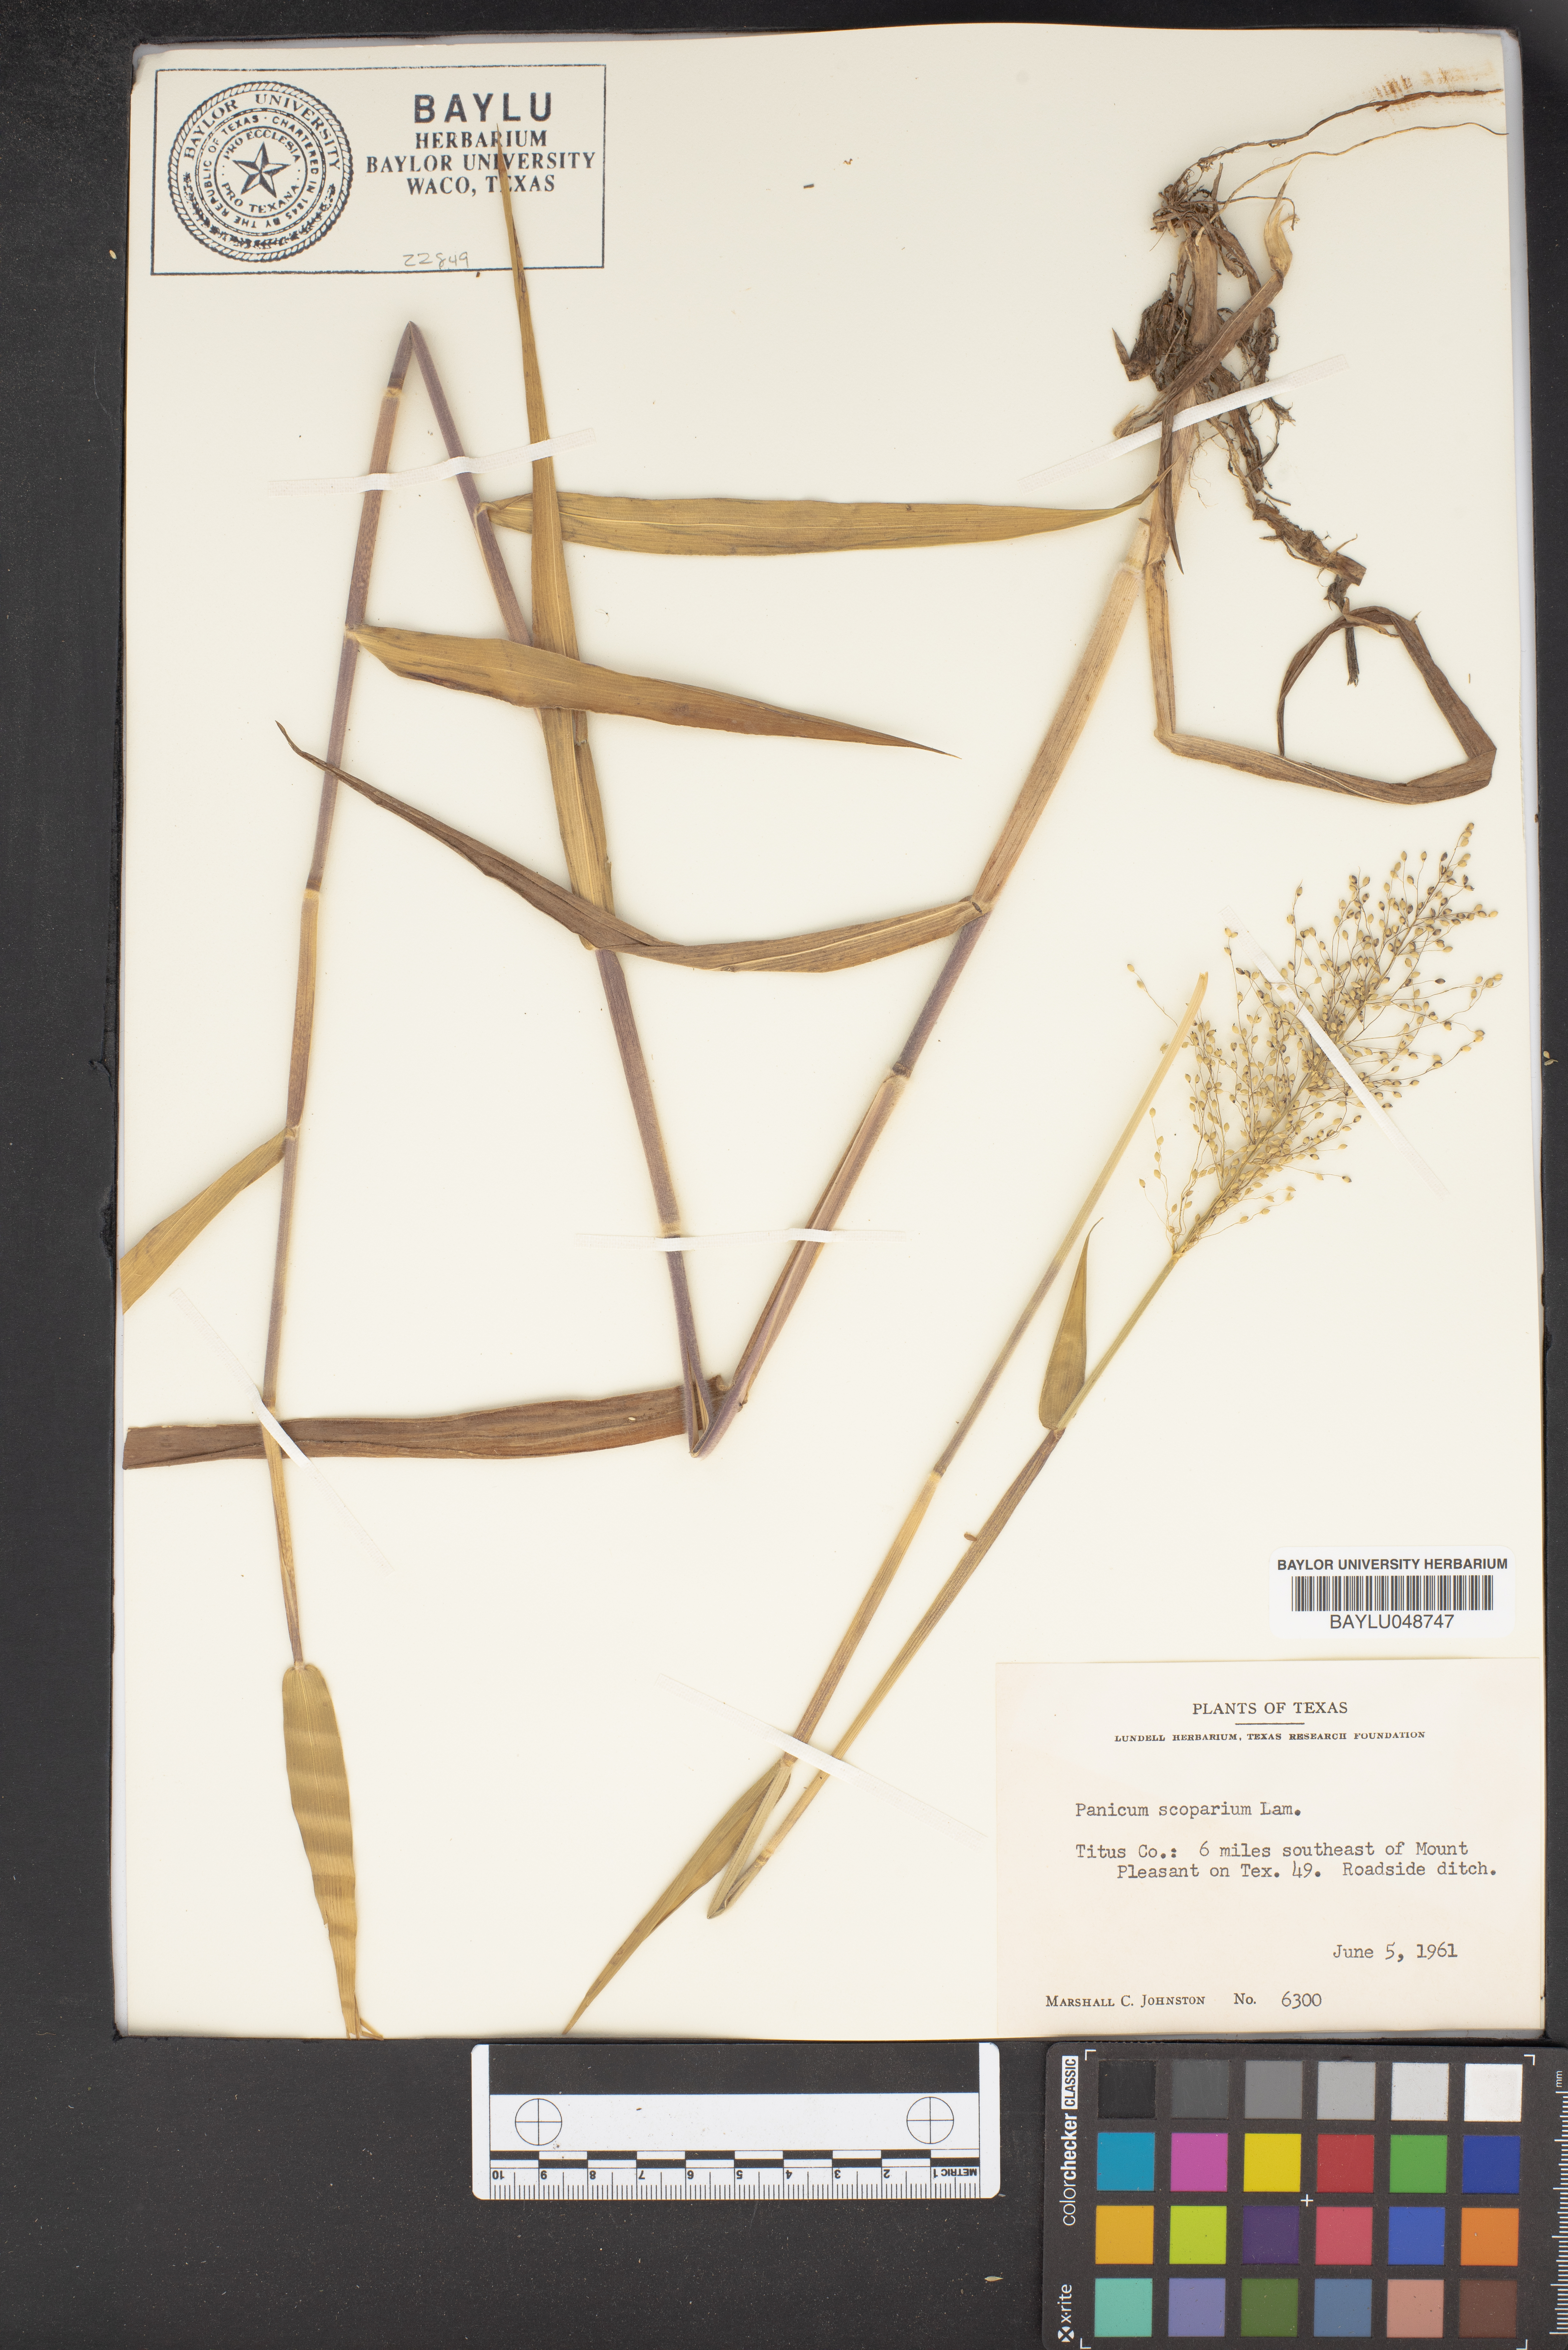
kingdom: Plantae
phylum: Tracheophyta
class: Liliopsida
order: Poales
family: Poaceae
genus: Dichanthelium
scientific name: Dichanthelium scribnerianum
